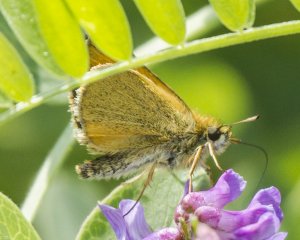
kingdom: Animalia
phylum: Arthropoda
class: Insecta
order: Lepidoptera
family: Hesperiidae
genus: Thymelicus
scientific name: Thymelicus lineola
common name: European Skipper
